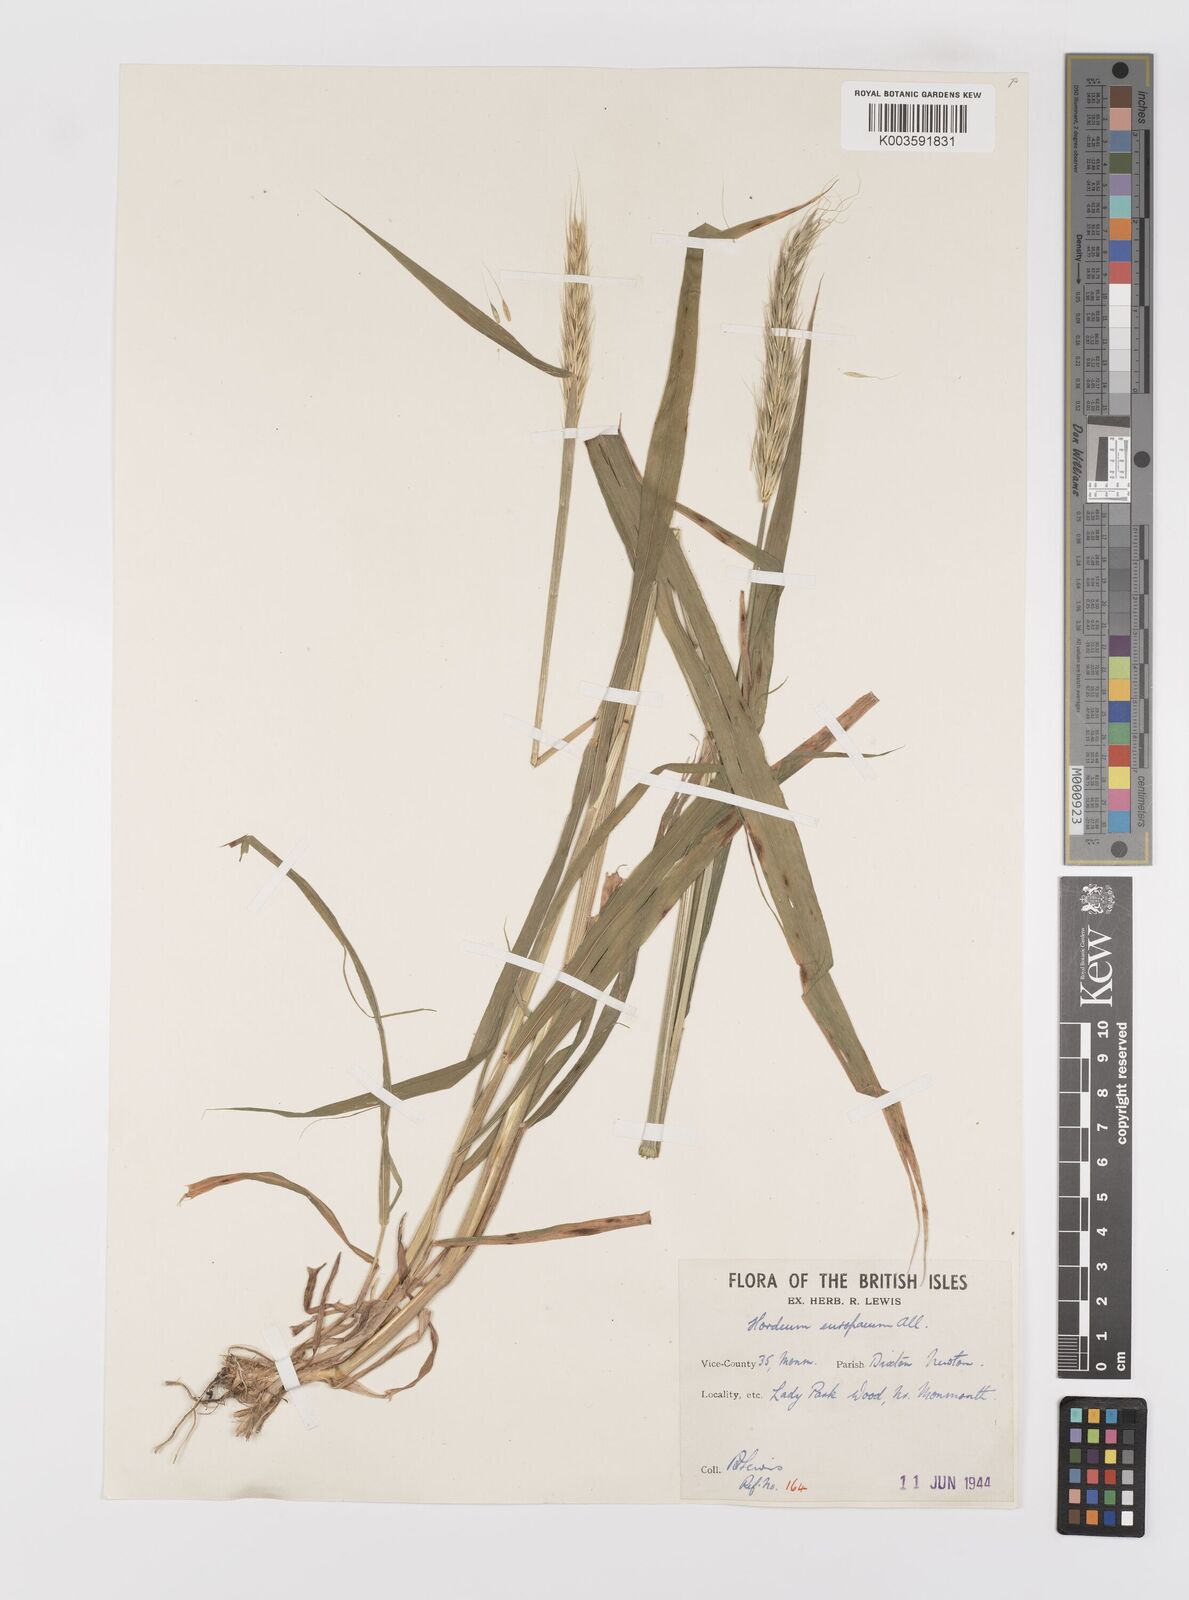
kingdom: Plantae
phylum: Tracheophyta
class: Liliopsida
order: Poales
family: Poaceae
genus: Hordelymus
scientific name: Hordelymus europaeus
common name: Wood-barley
